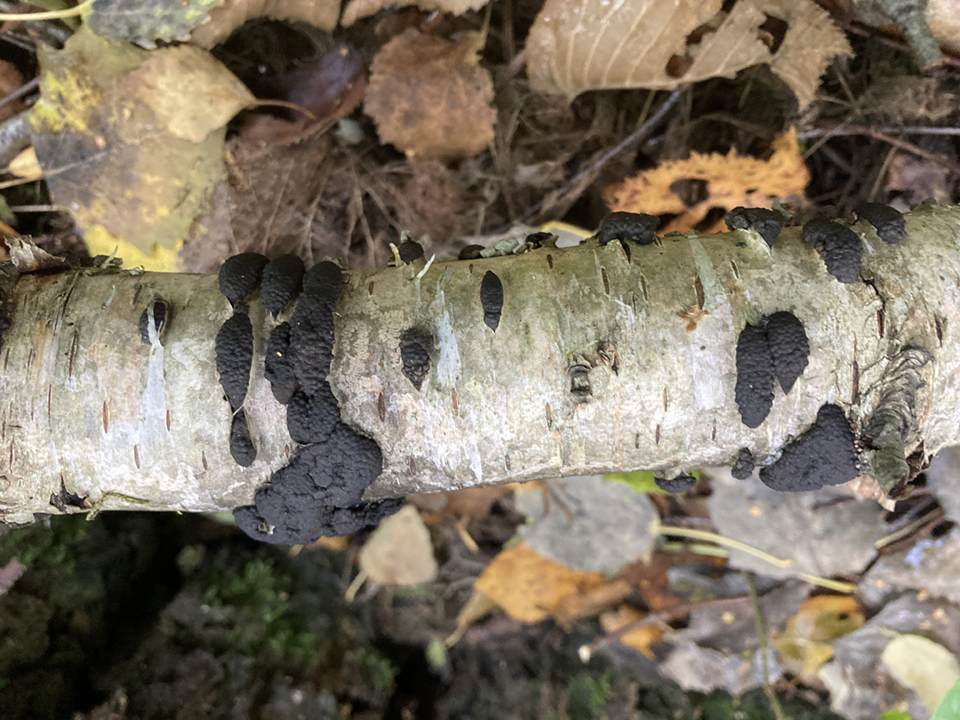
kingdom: Fungi
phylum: Ascomycota
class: Sordariomycetes
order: Xylariales
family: Hypoxylaceae
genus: Jackrogersella
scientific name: Jackrogersella multiformis
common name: foranderlig kulbær
